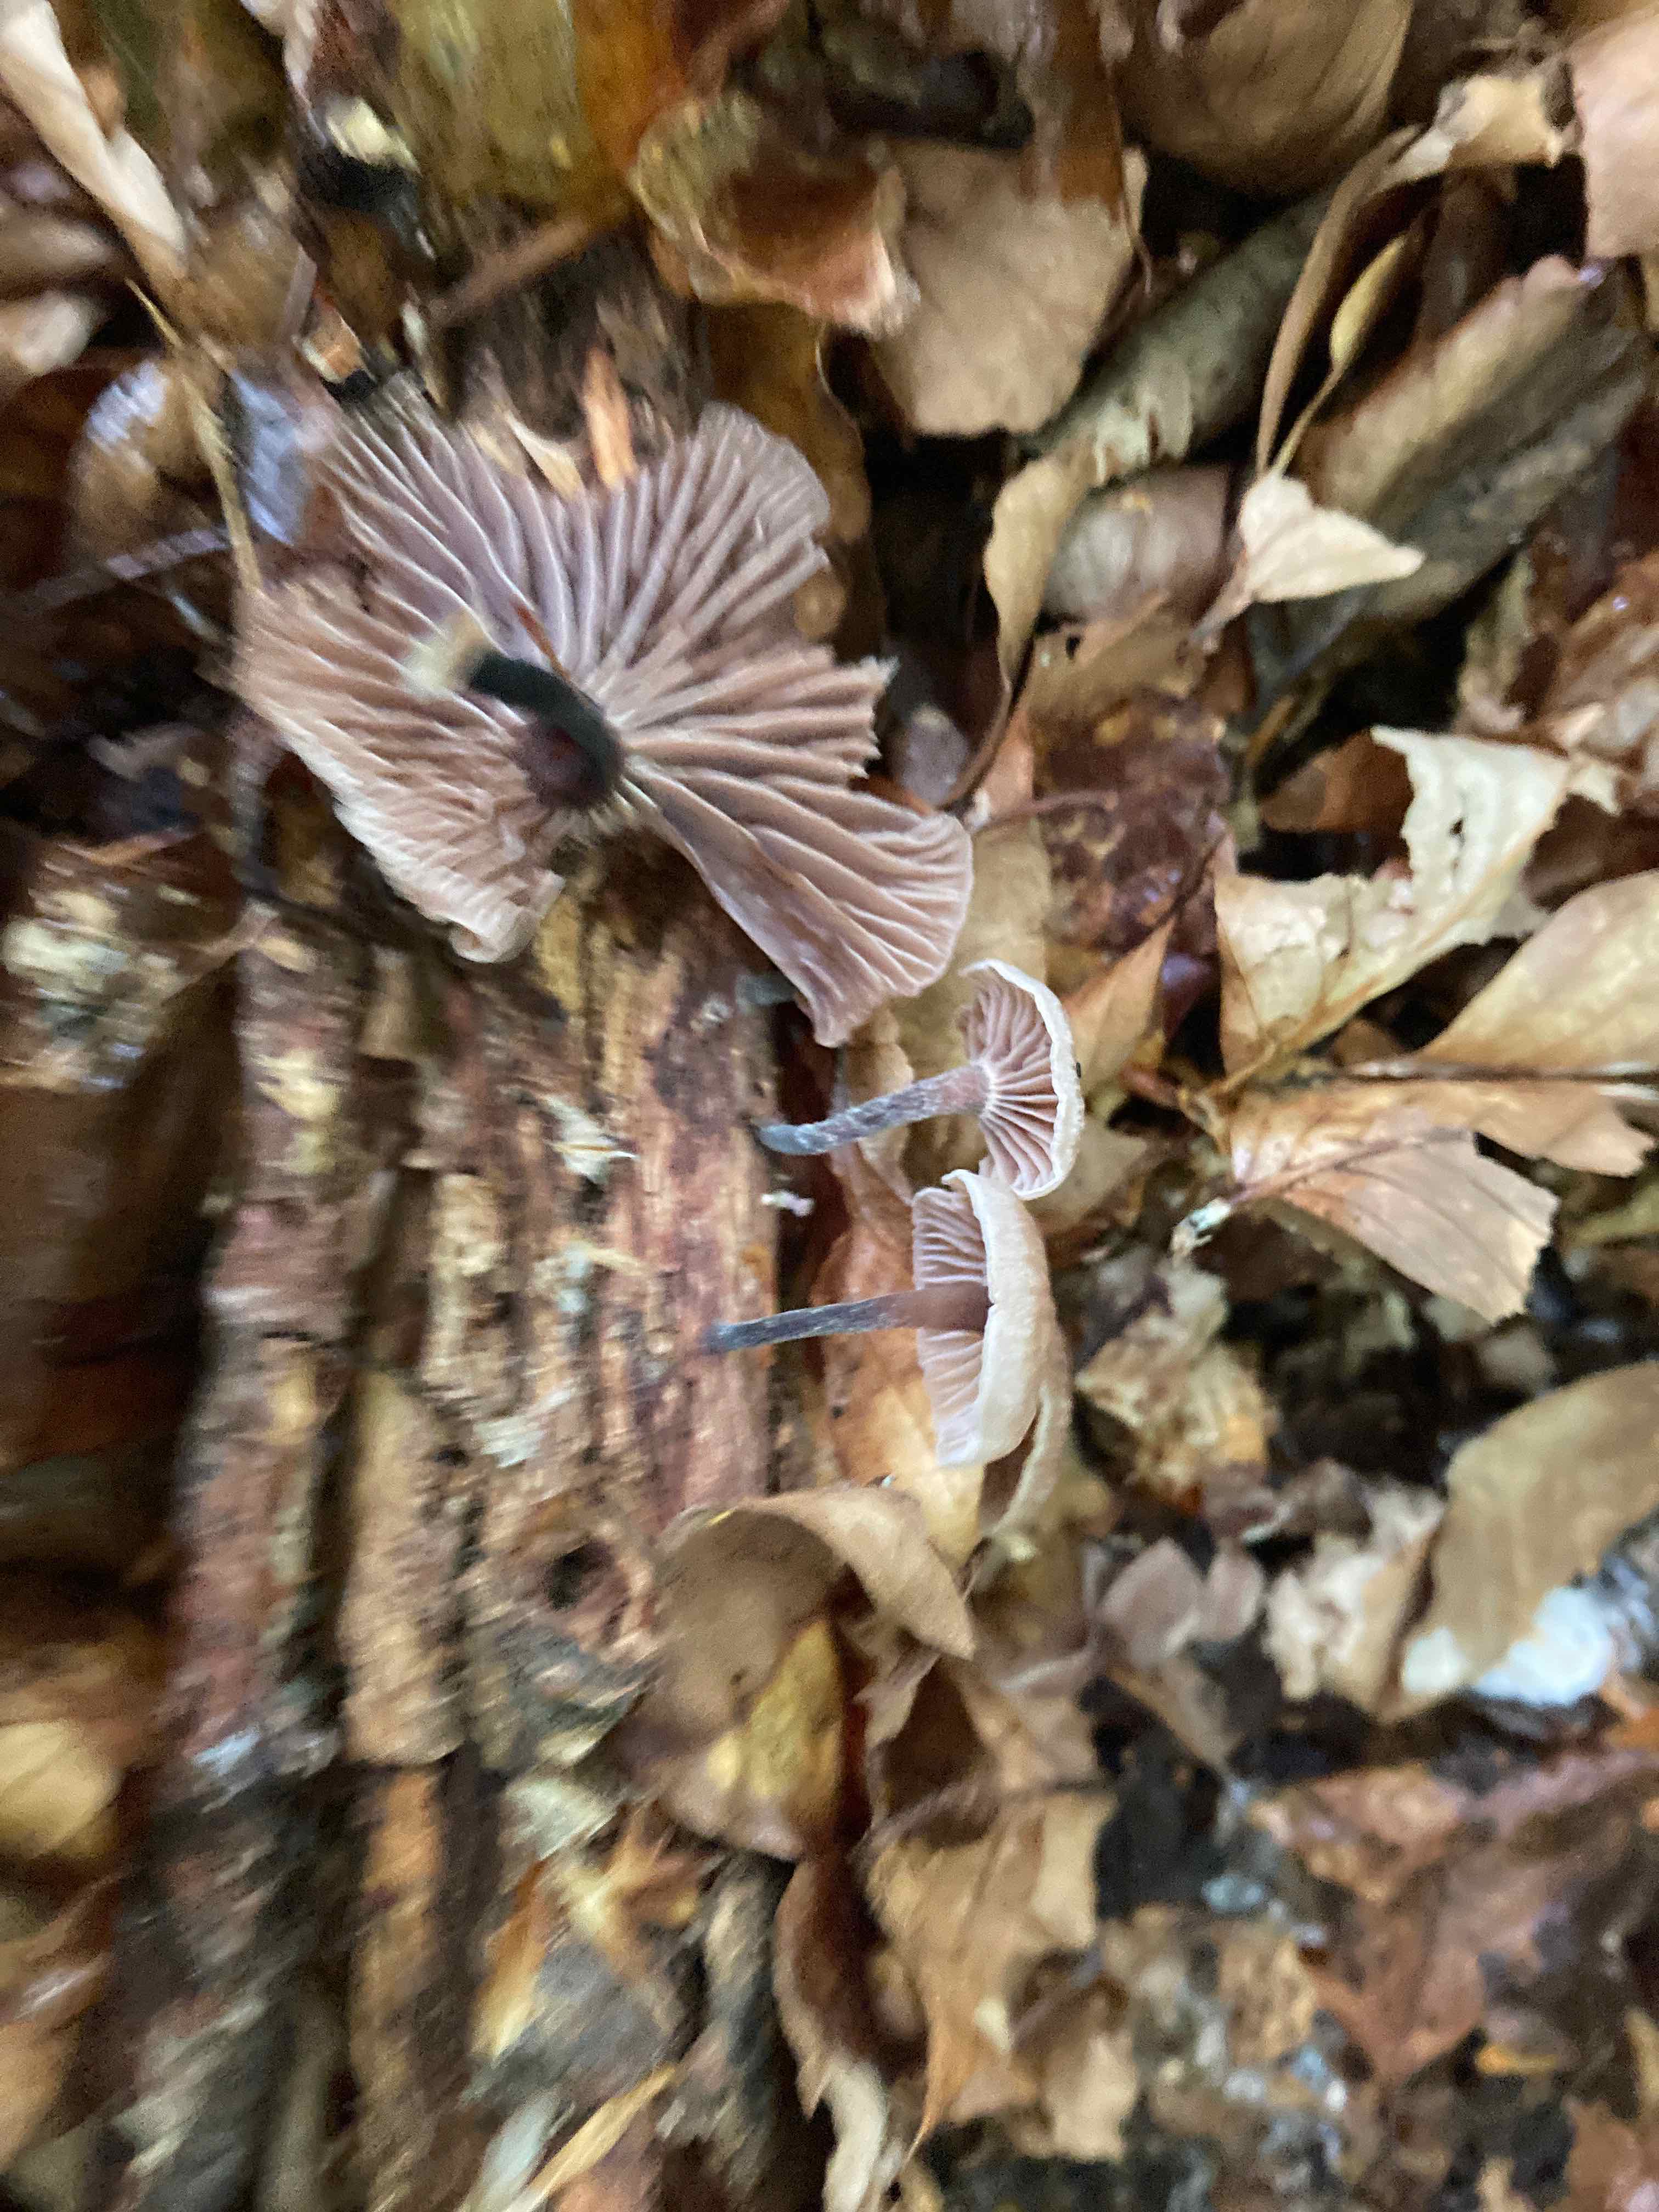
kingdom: Fungi
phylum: Basidiomycota
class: Agaricomycetes
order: Agaricales
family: Omphalotaceae
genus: Gymnopus
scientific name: Gymnopus foetidus
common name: stinkende fladhat
